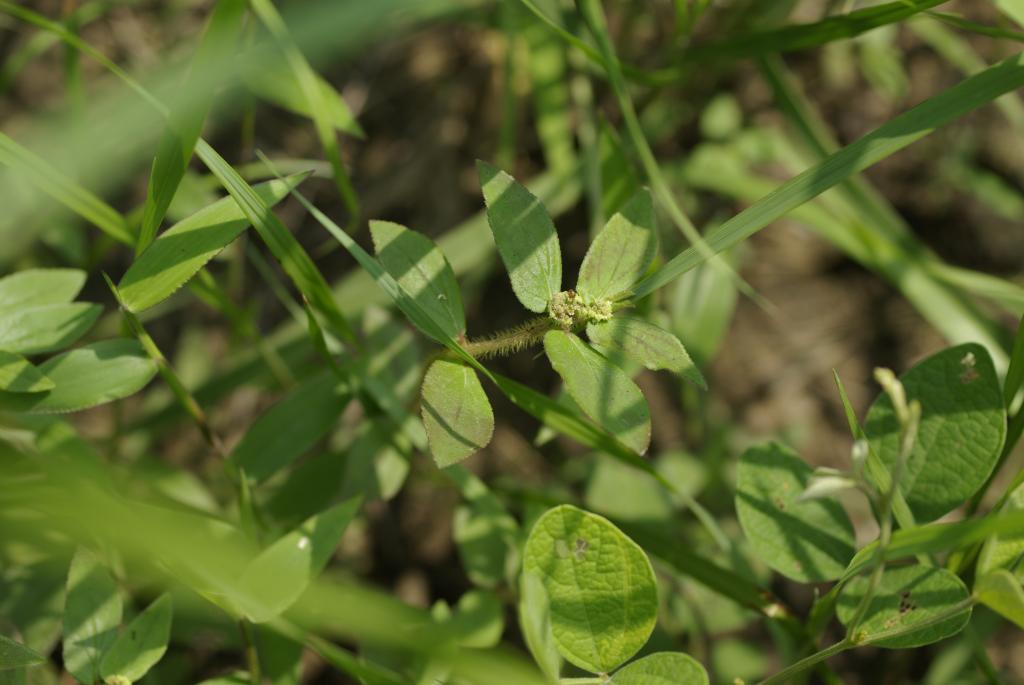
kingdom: Plantae
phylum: Tracheophyta
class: Magnoliopsida
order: Malpighiales
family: Euphorbiaceae
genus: Euphorbia
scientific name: Euphorbia hirta
